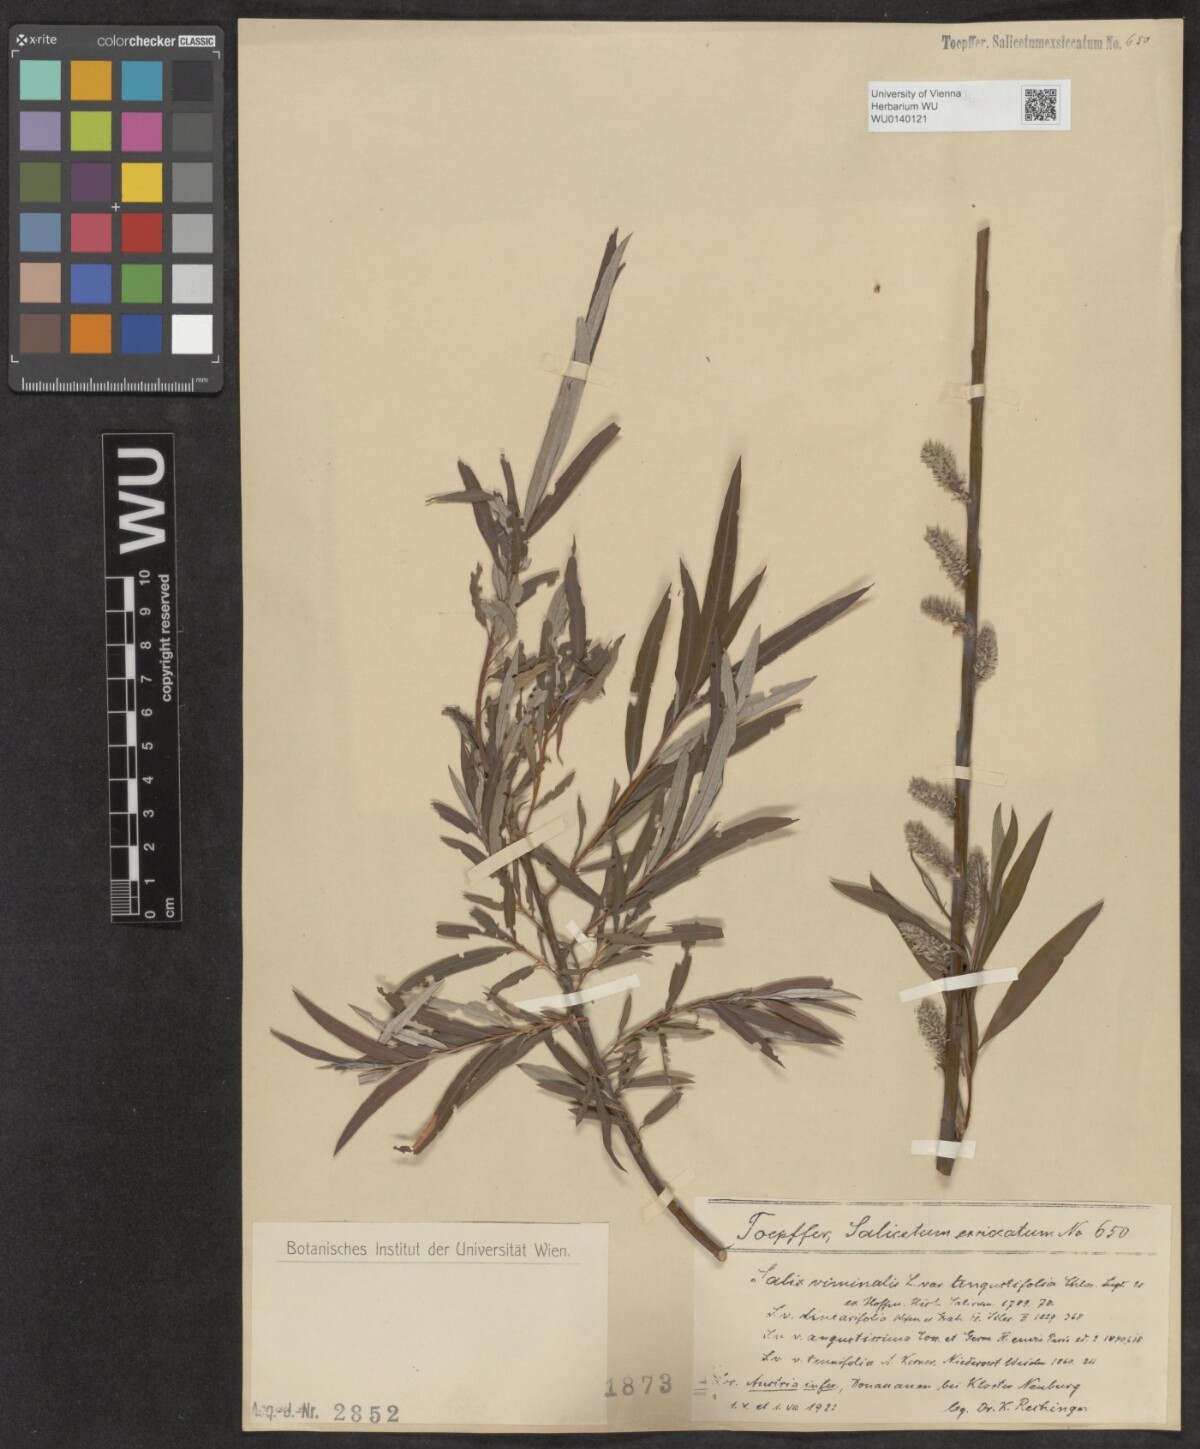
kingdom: Plantae
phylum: Tracheophyta
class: Magnoliopsida
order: Malpighiales
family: Salicaceae
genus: Salix
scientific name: Salix viminalis
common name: Osier
